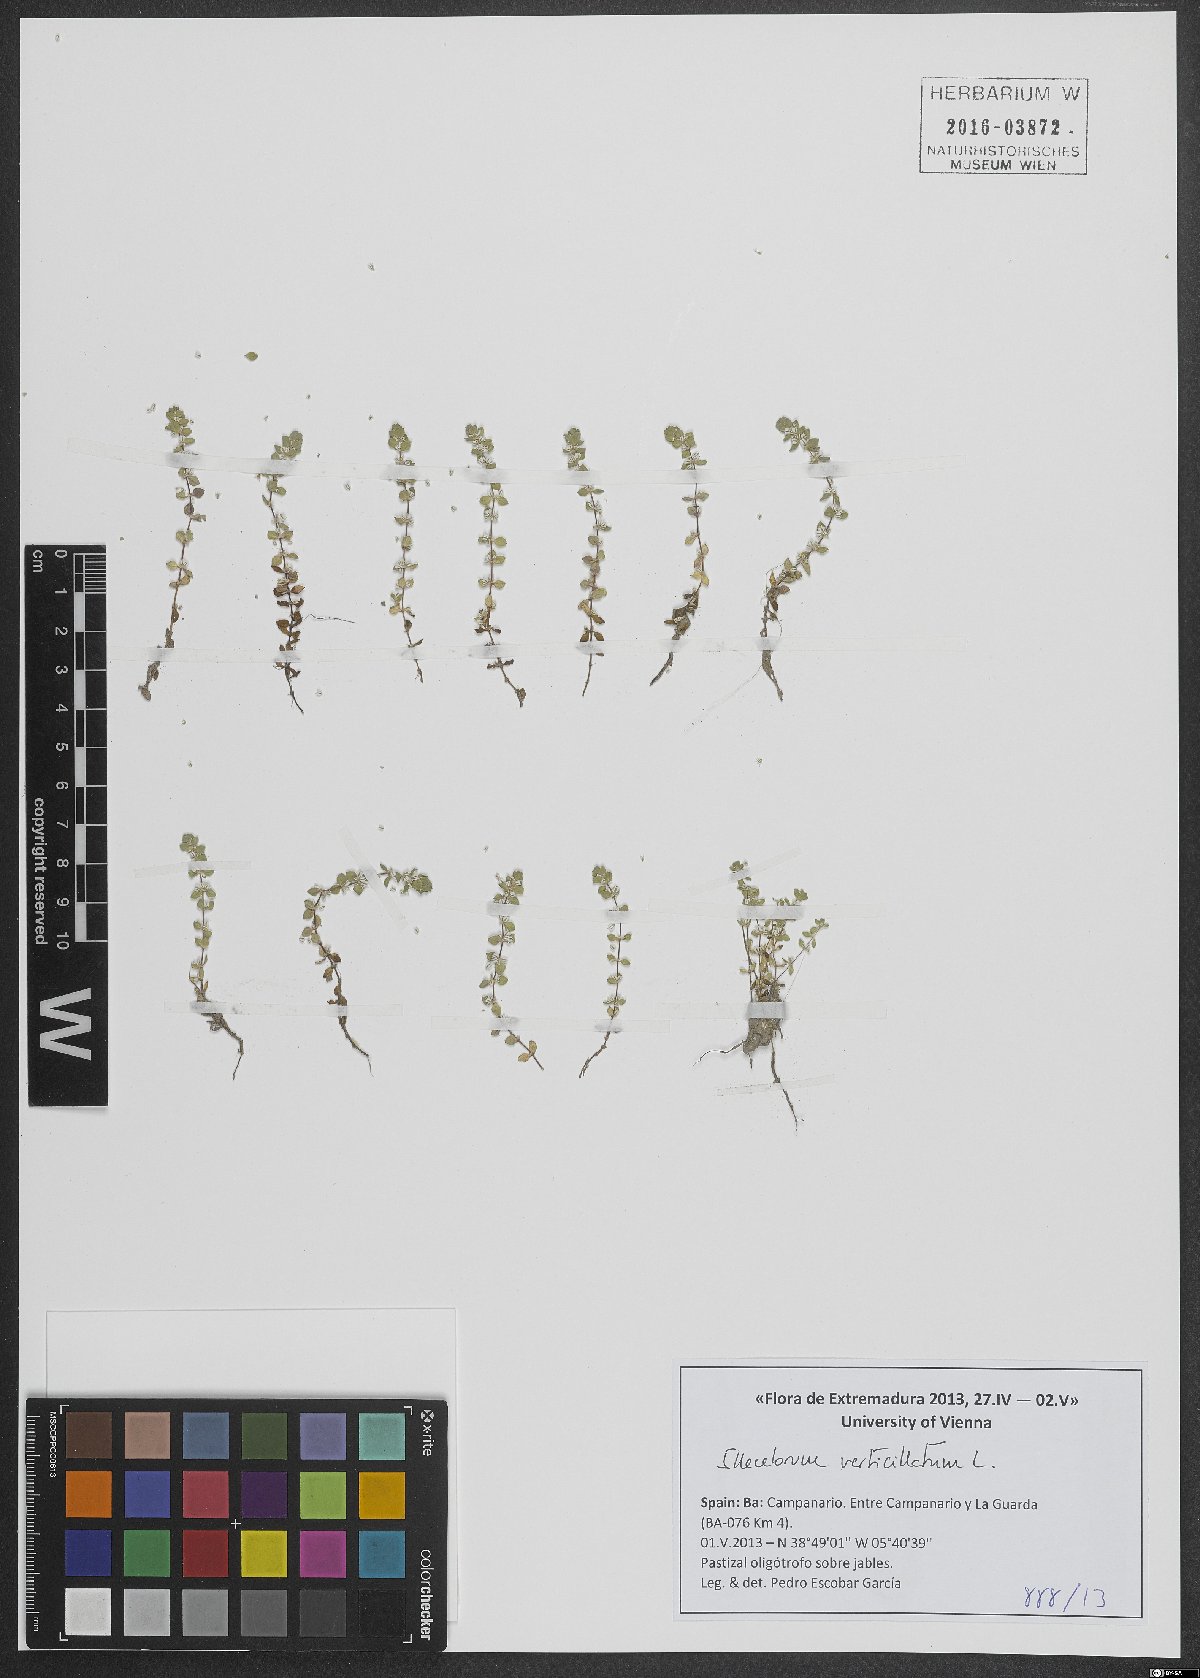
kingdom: Plantae
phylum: Tracheophyta
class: Magnoliopsida
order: Caryophyllales
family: Caryophyllaceae
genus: Illecebrum
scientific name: Illecebrum verticillatum
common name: Coral necklace
